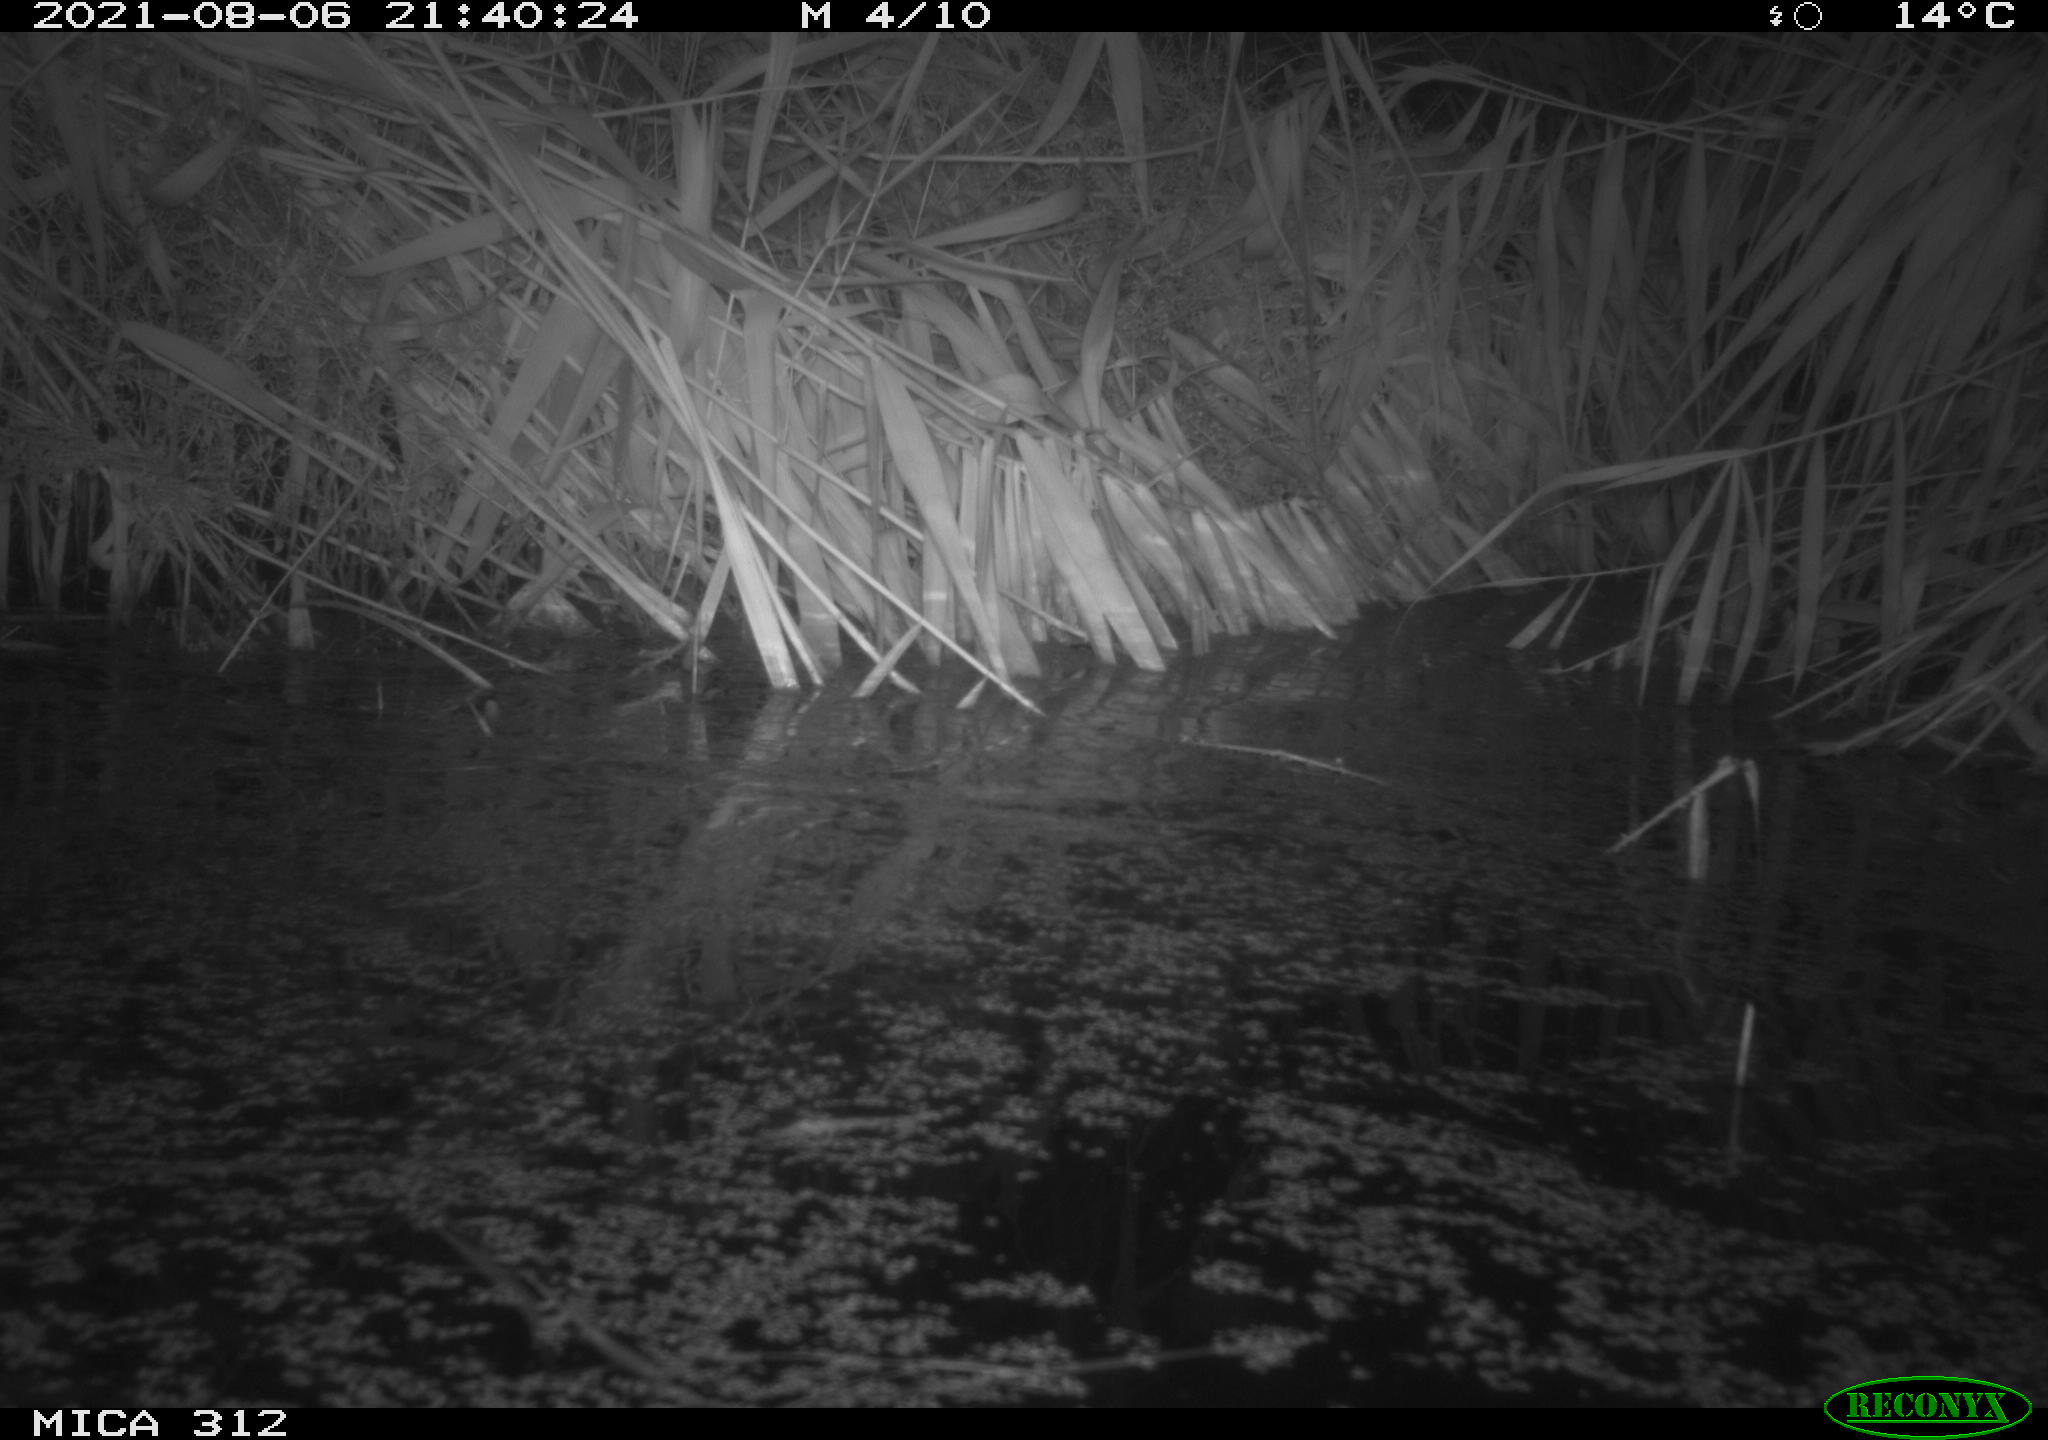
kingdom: Animalia
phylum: Chordata
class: Mammalia
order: Rodentia
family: Muridae
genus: Rattus
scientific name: Rattus norvegicus
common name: Brown rat
